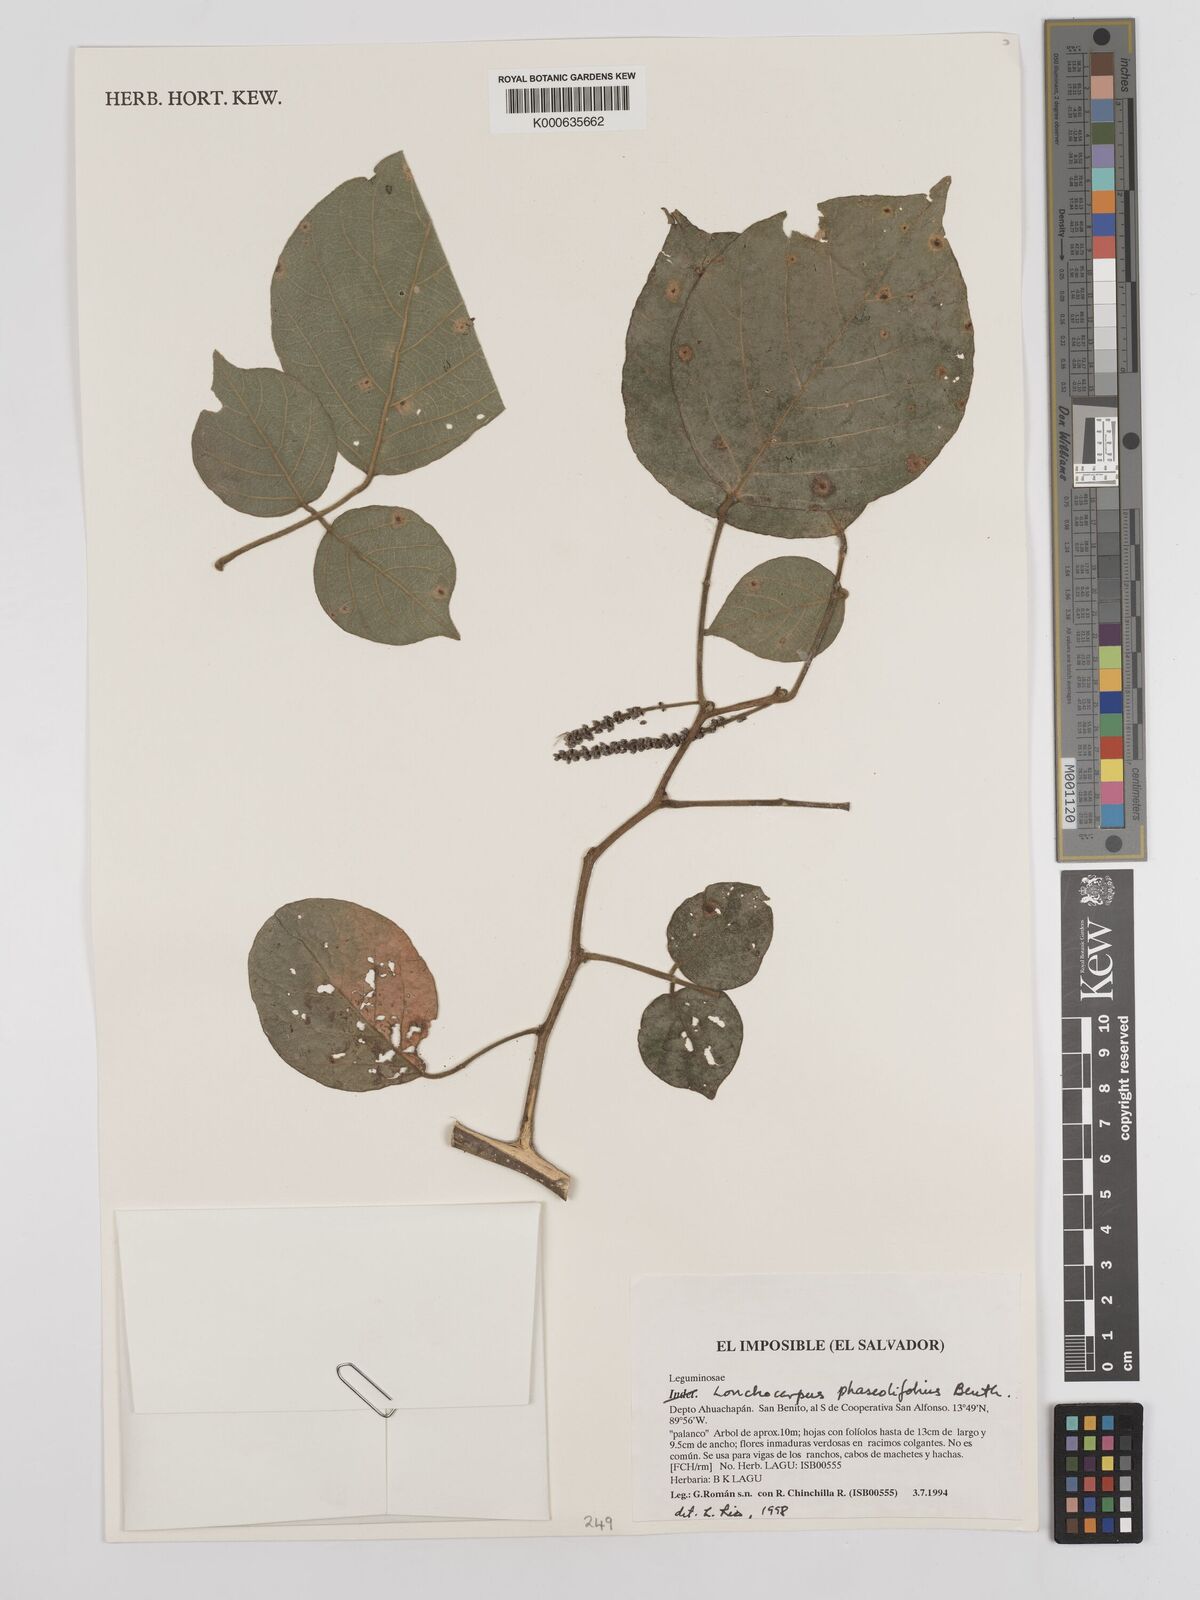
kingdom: Plantae
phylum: Tracheophyta
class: Magnoliopsida
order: Fabales
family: Fabaceae
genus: Lonchocarpus
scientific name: Lonchocarpus phaseolifolius
